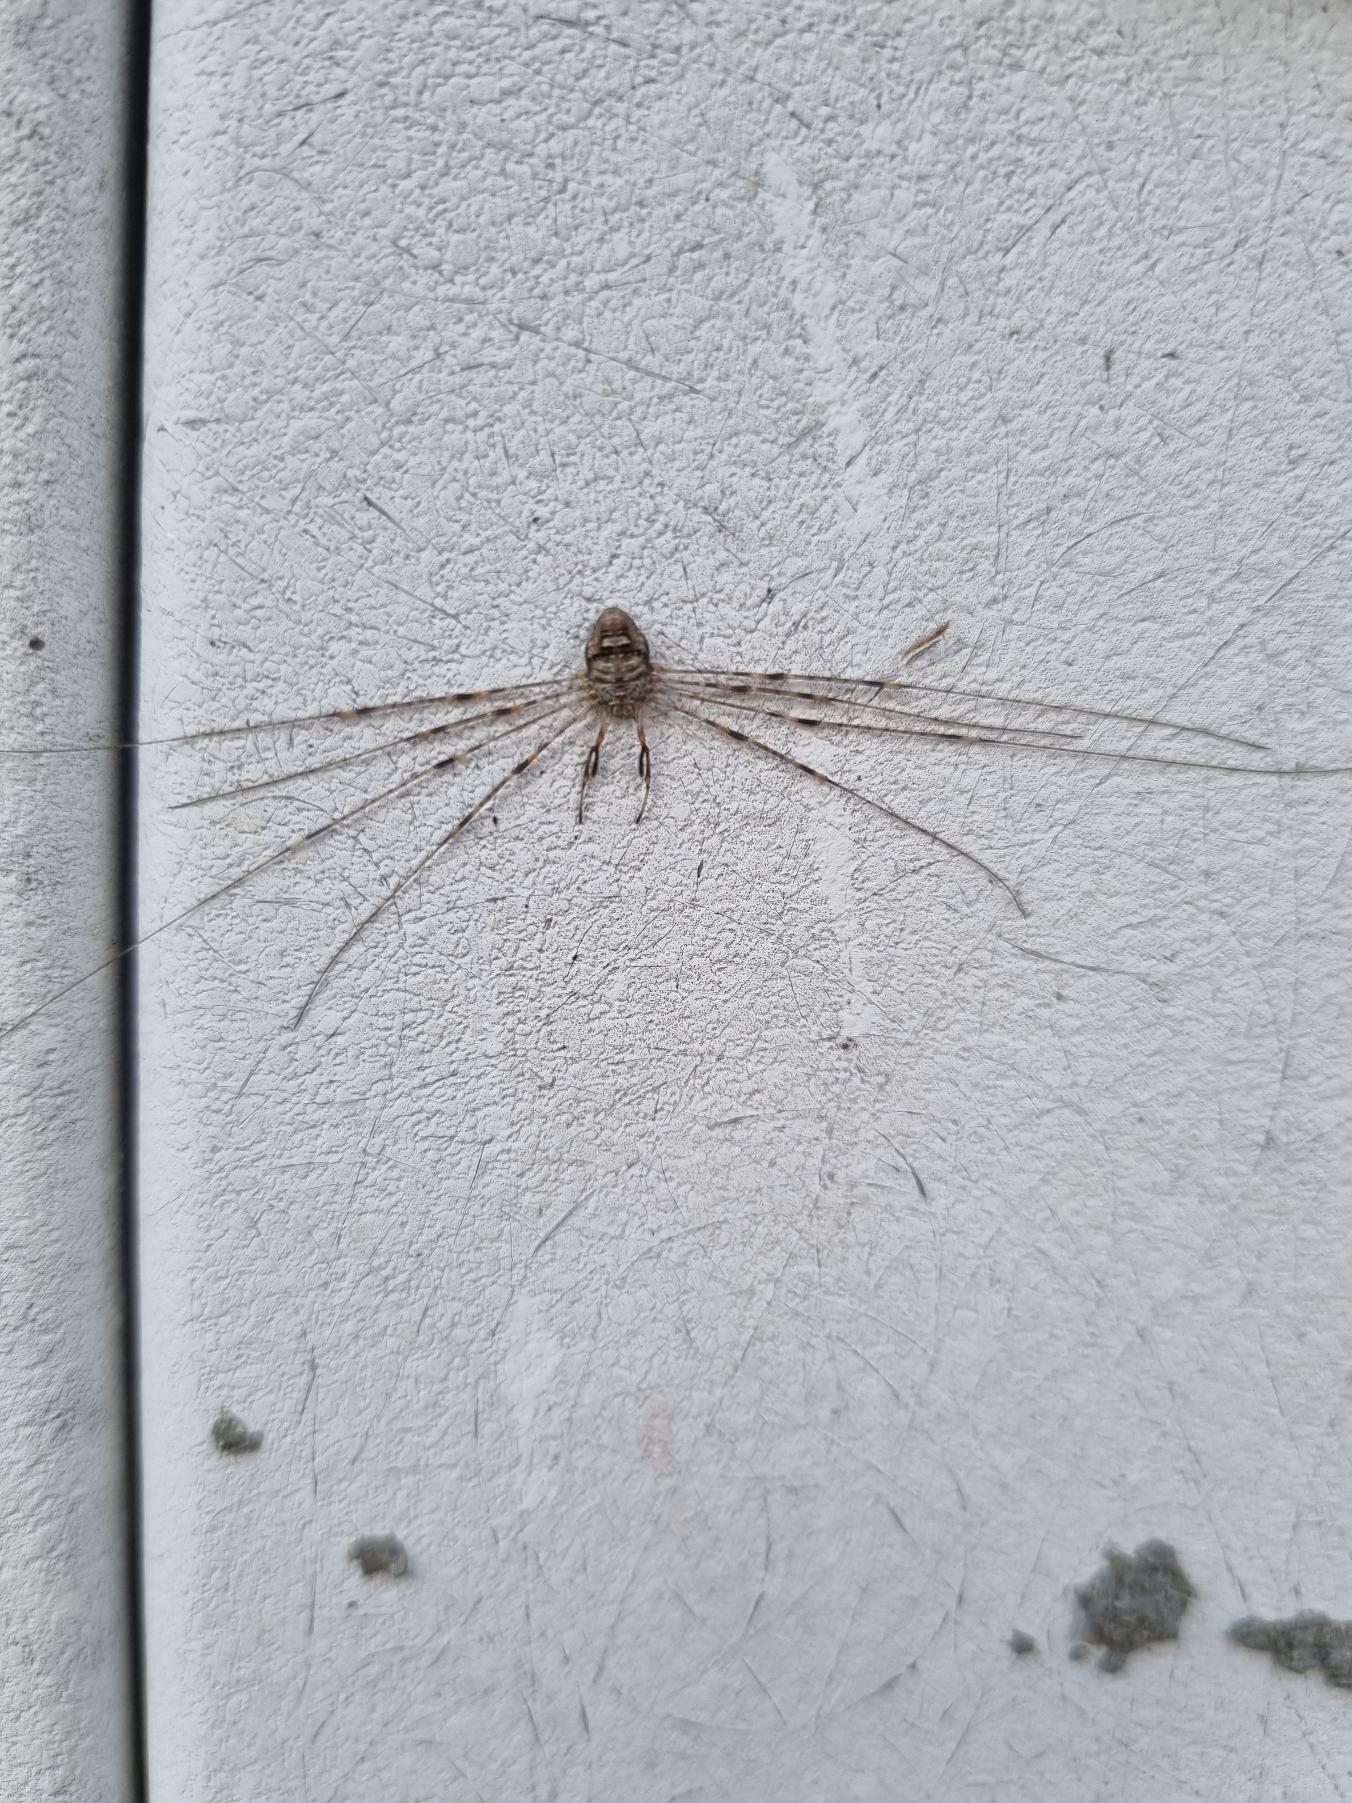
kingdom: Animalia
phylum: Arthropoda
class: Arachnida
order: Opiliones
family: Phalangiidae
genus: Dicranopalpus
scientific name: Dicranopalpus ramosus
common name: Gaffelmejer
